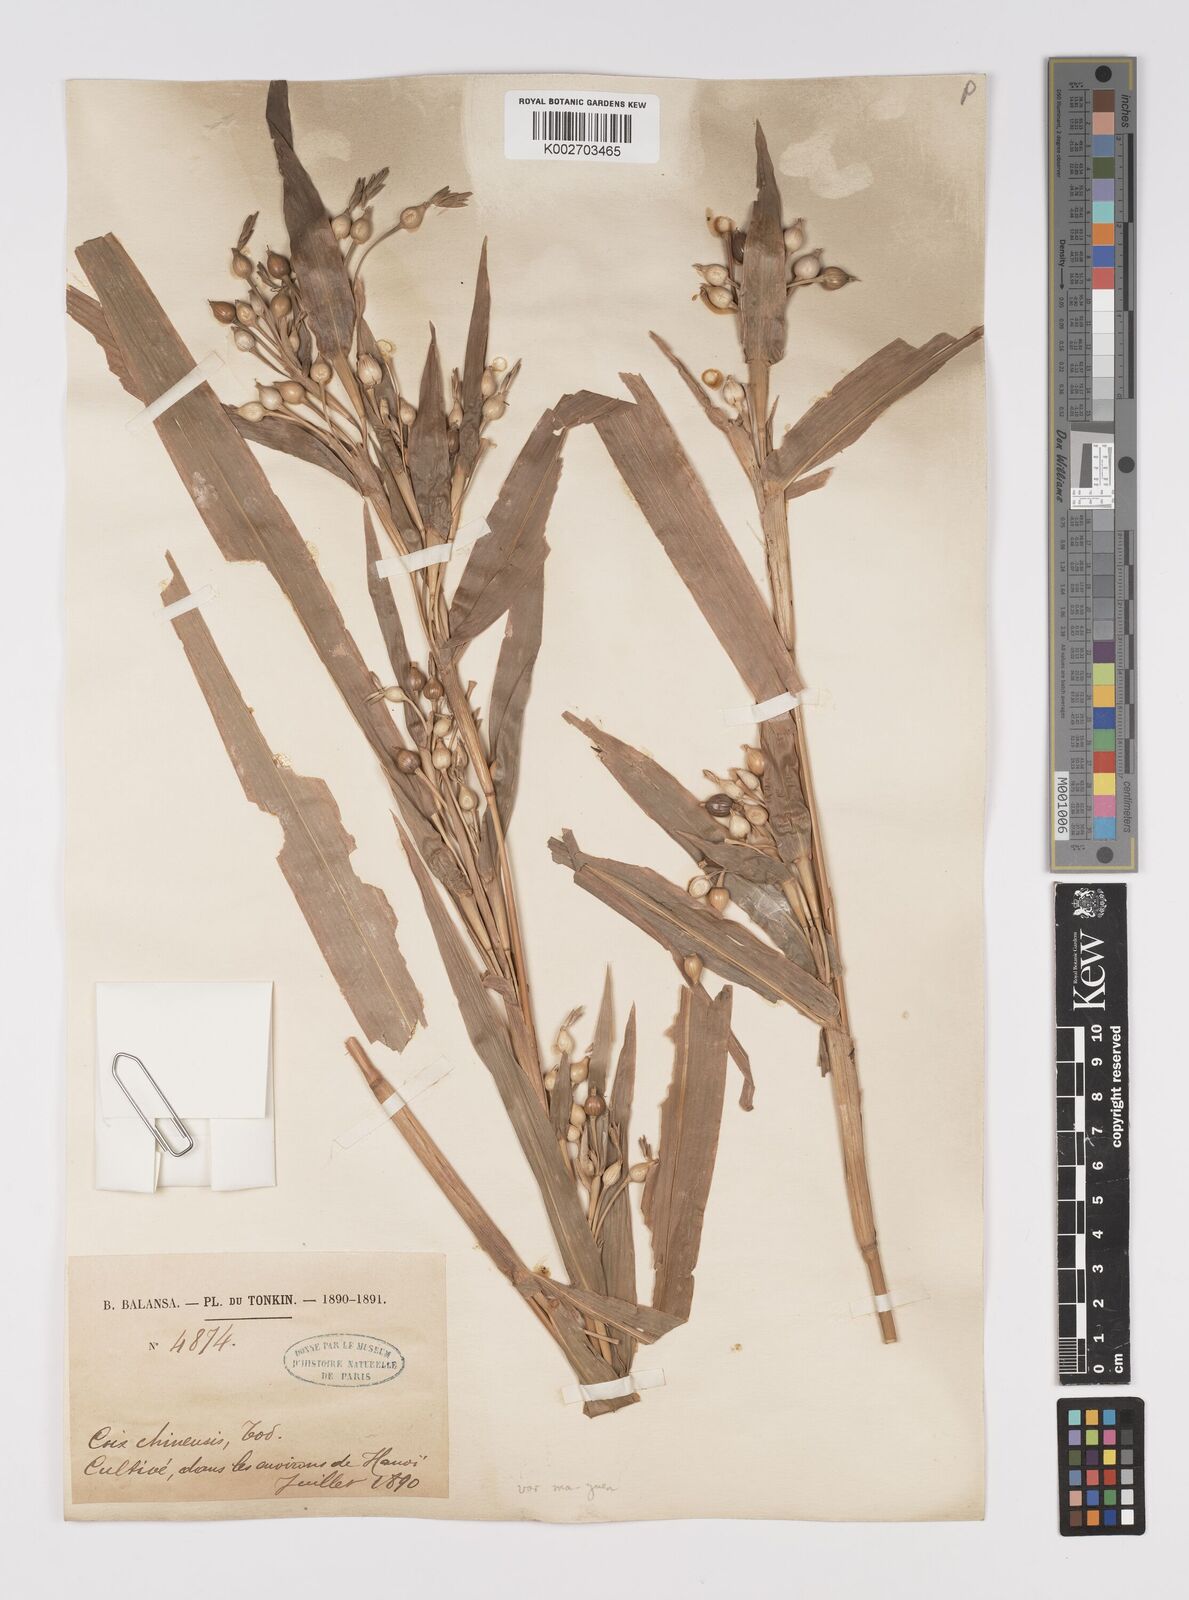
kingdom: Plantae
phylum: Tracheophyta
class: Liliopsida
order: Poales
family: Poaceae
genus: Coix
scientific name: Coix lacryma-jobi
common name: Job's tears
